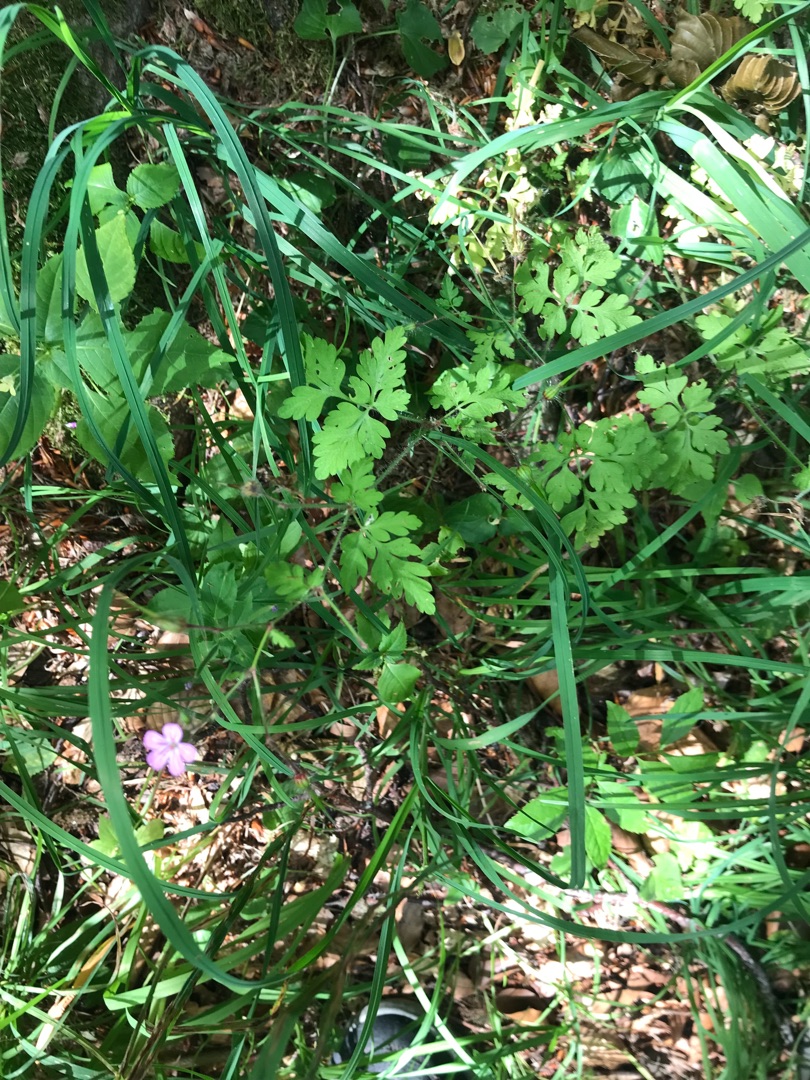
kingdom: Plantae
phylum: Tracheophyta
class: Magnoliopsida
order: Geraniales
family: Geraniaceae
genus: Geranium
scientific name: Geranium robertianum
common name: Stinkende storkenæb
